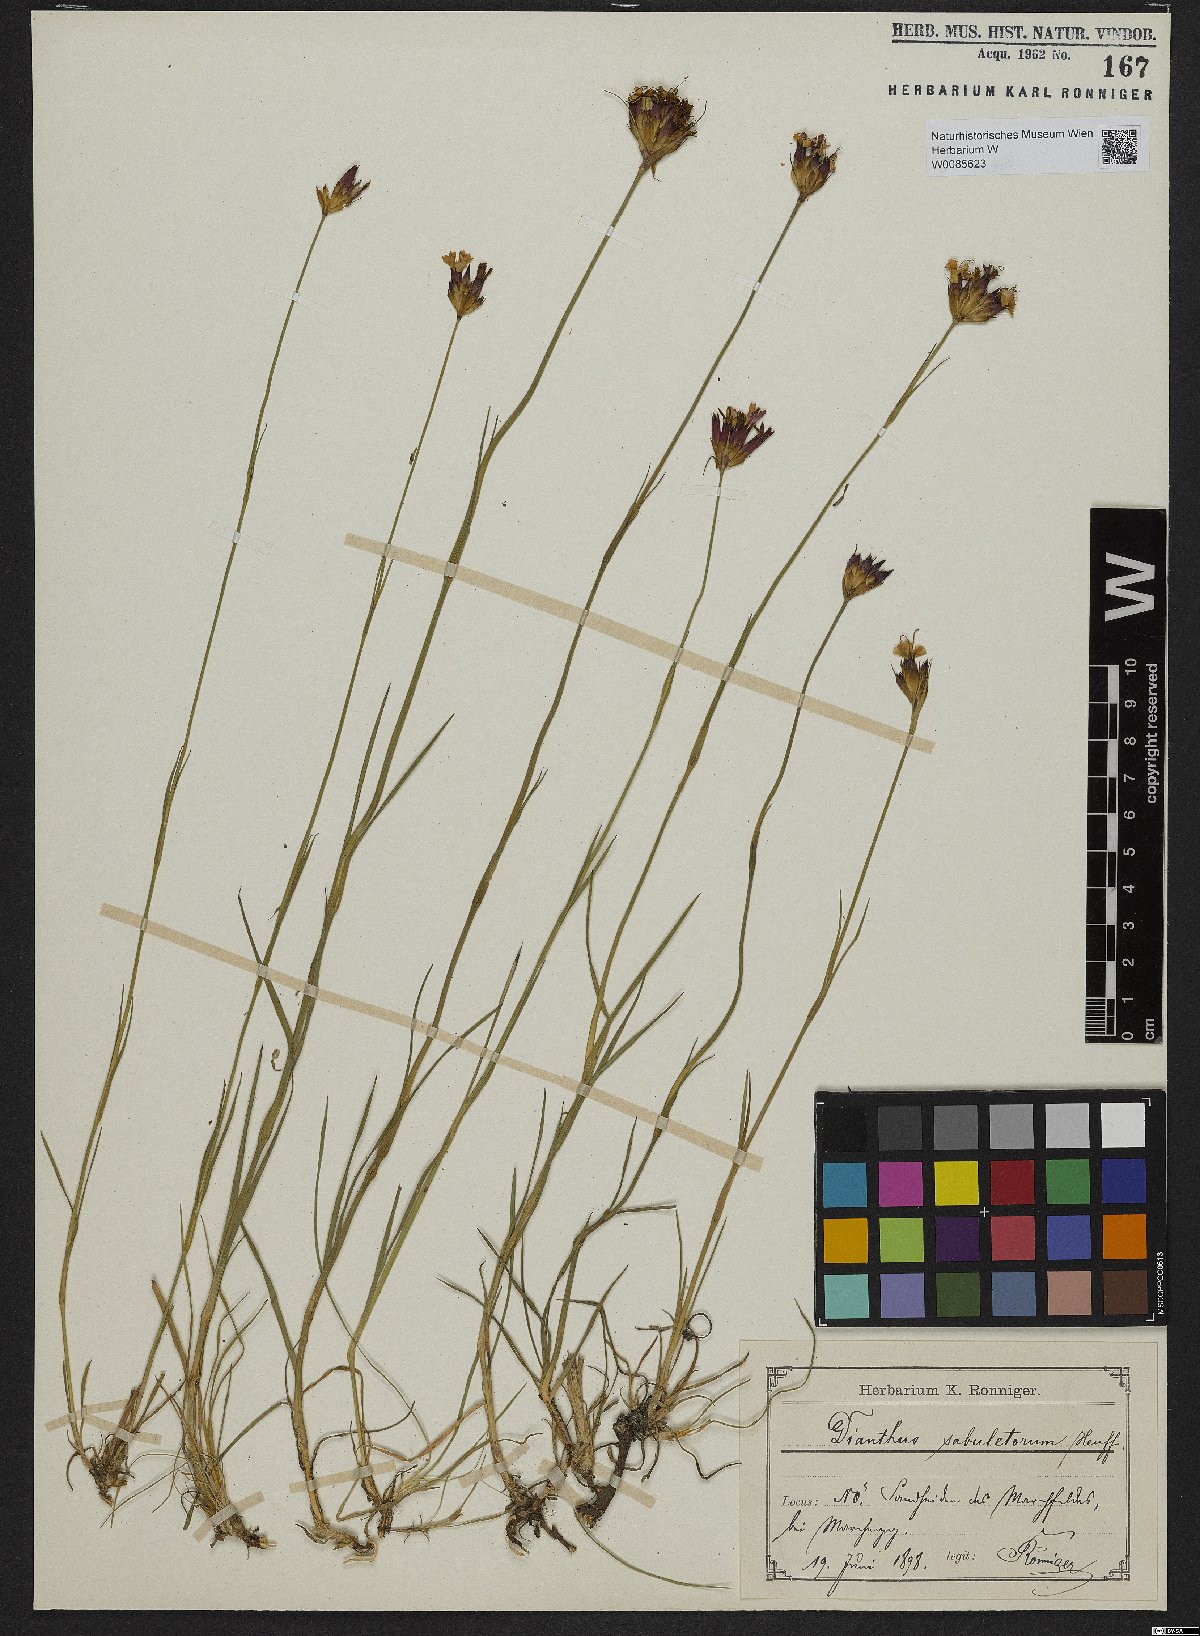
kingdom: Plantae
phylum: Tracheophyta
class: Magnoliopsida
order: Caryophyllales
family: Caryophyllaceae
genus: Dianthus
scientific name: Dianthus giganteiformis
